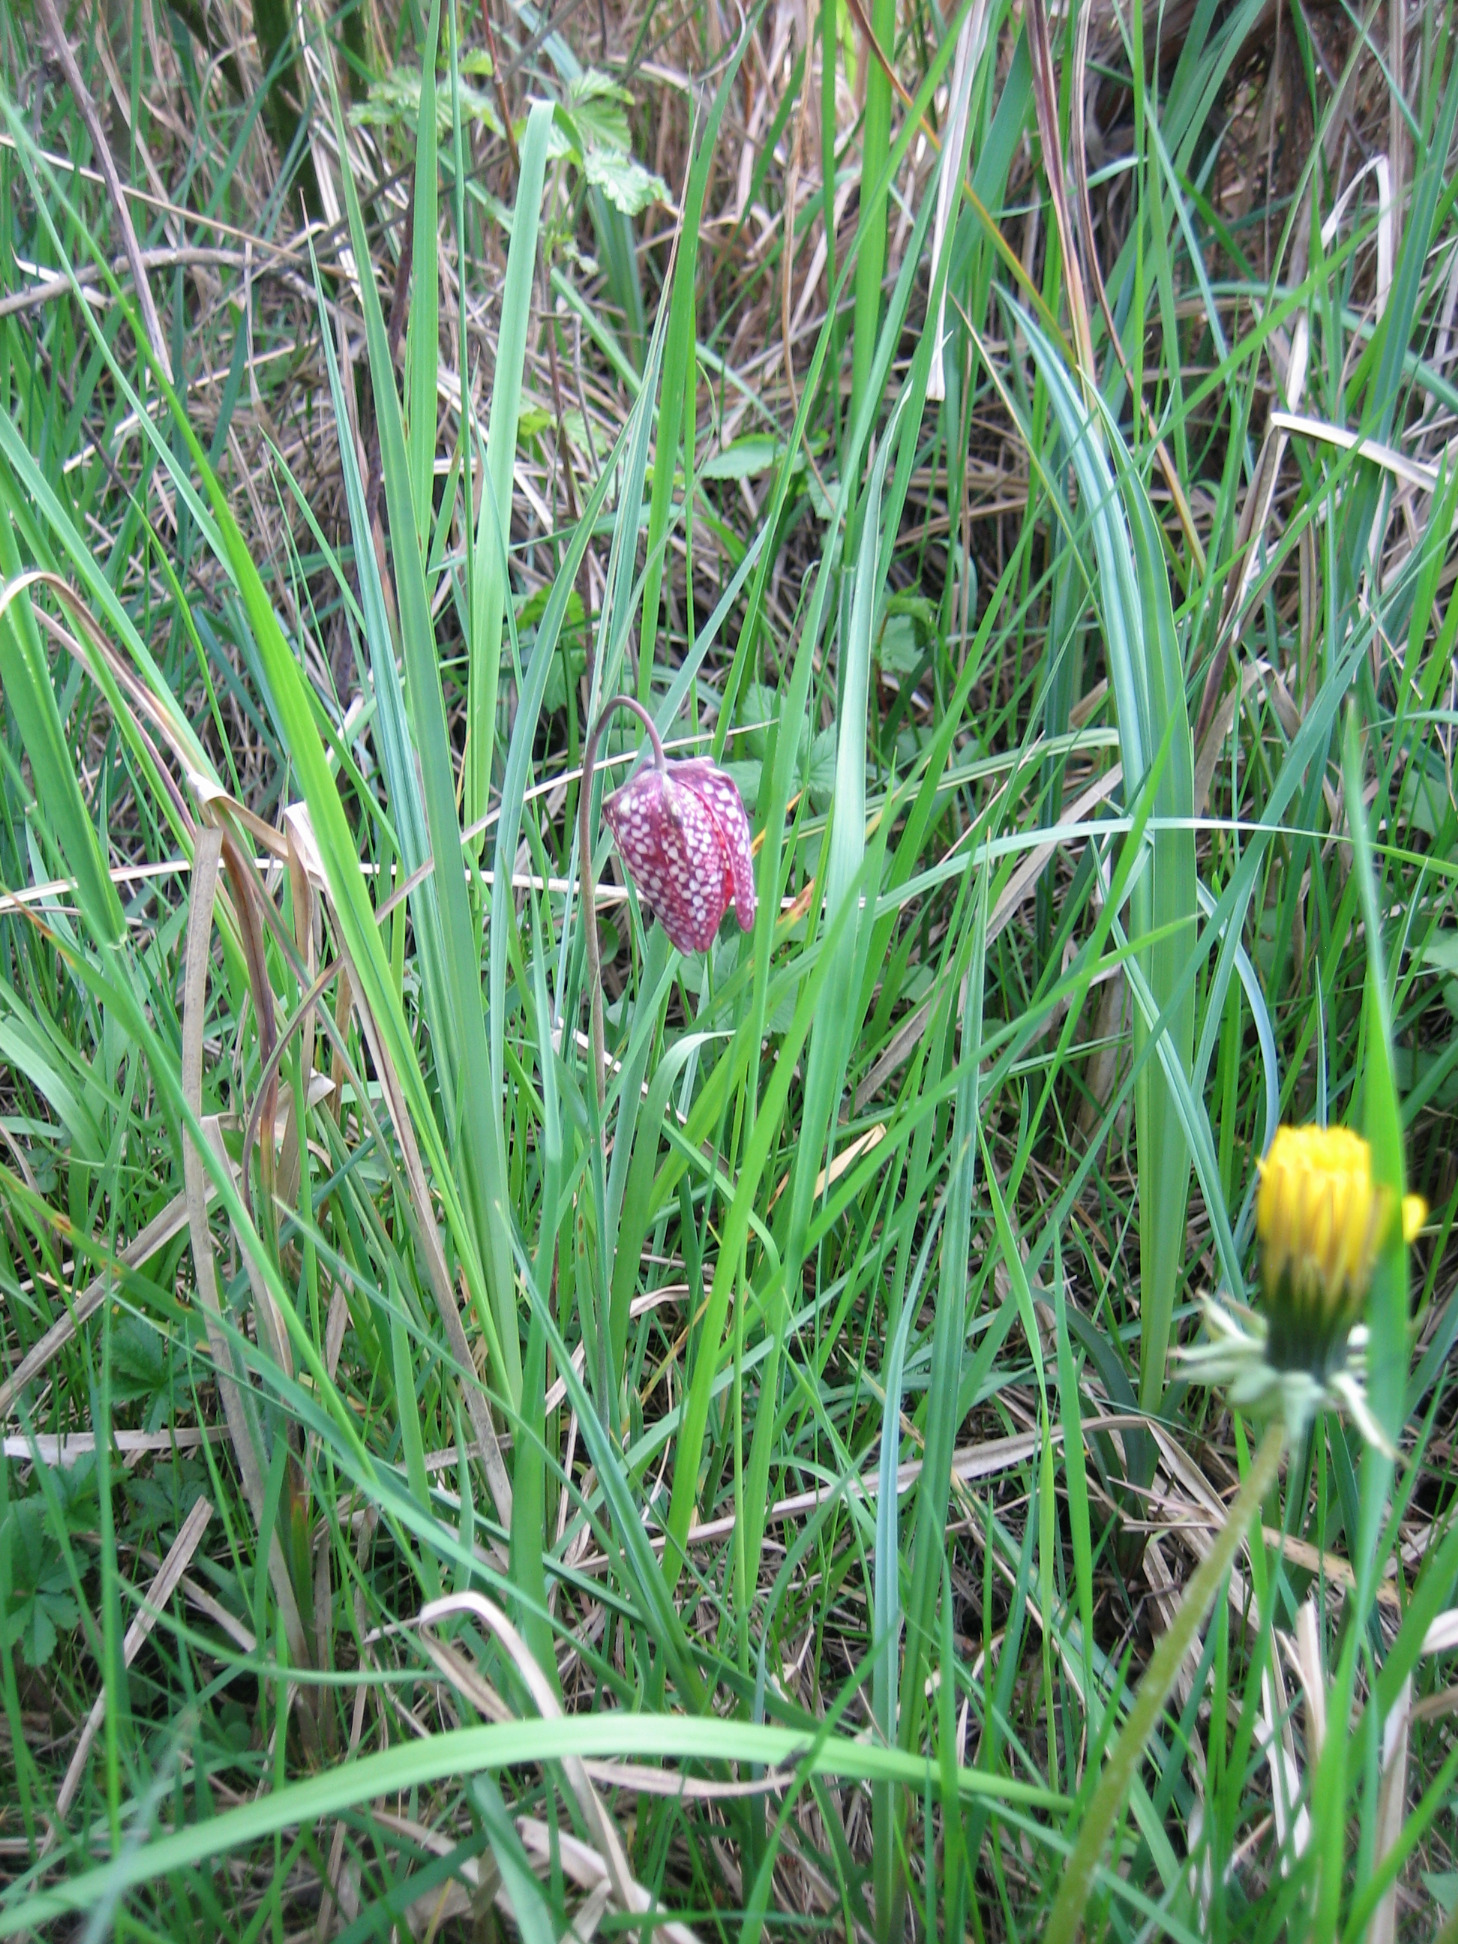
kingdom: Plantae
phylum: Tracheophyta
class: Liliopsida
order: Liliales
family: Liliaceae
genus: Fritillaria
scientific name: Fritillaria meleagris
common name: Vibeæg
